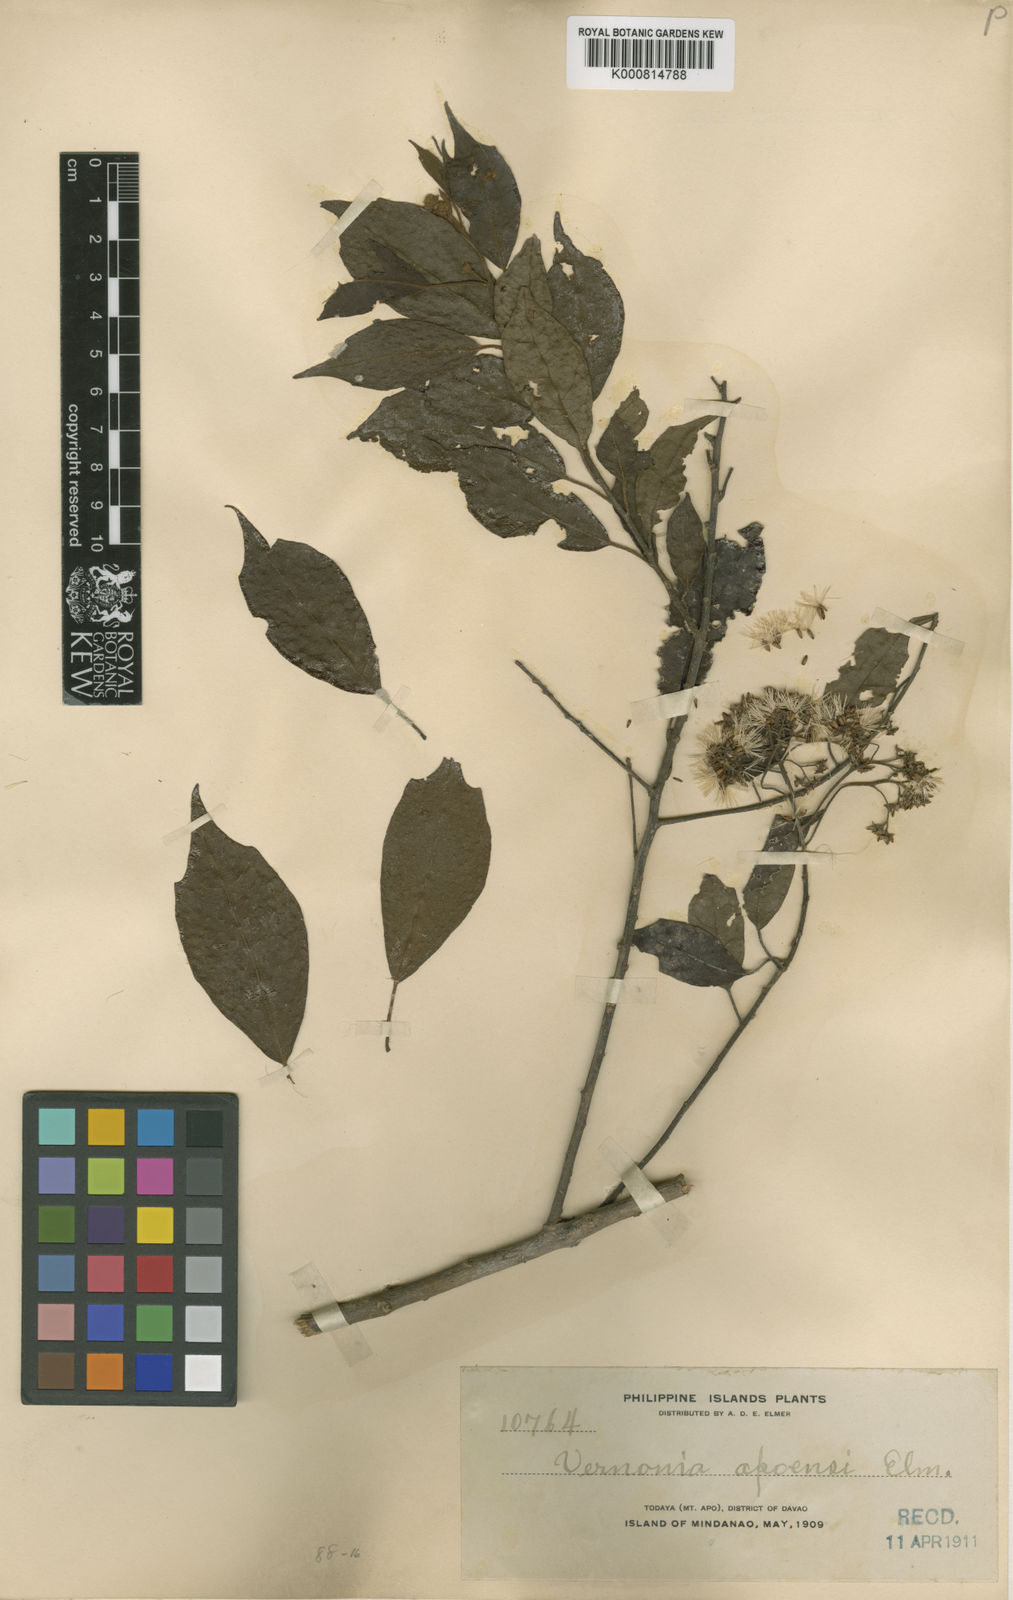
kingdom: Plantae
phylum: Tracheophyta
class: Magnoliopsida
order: Asterales
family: Asteraceae
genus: Vernonia
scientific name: Vernonia apoensis
